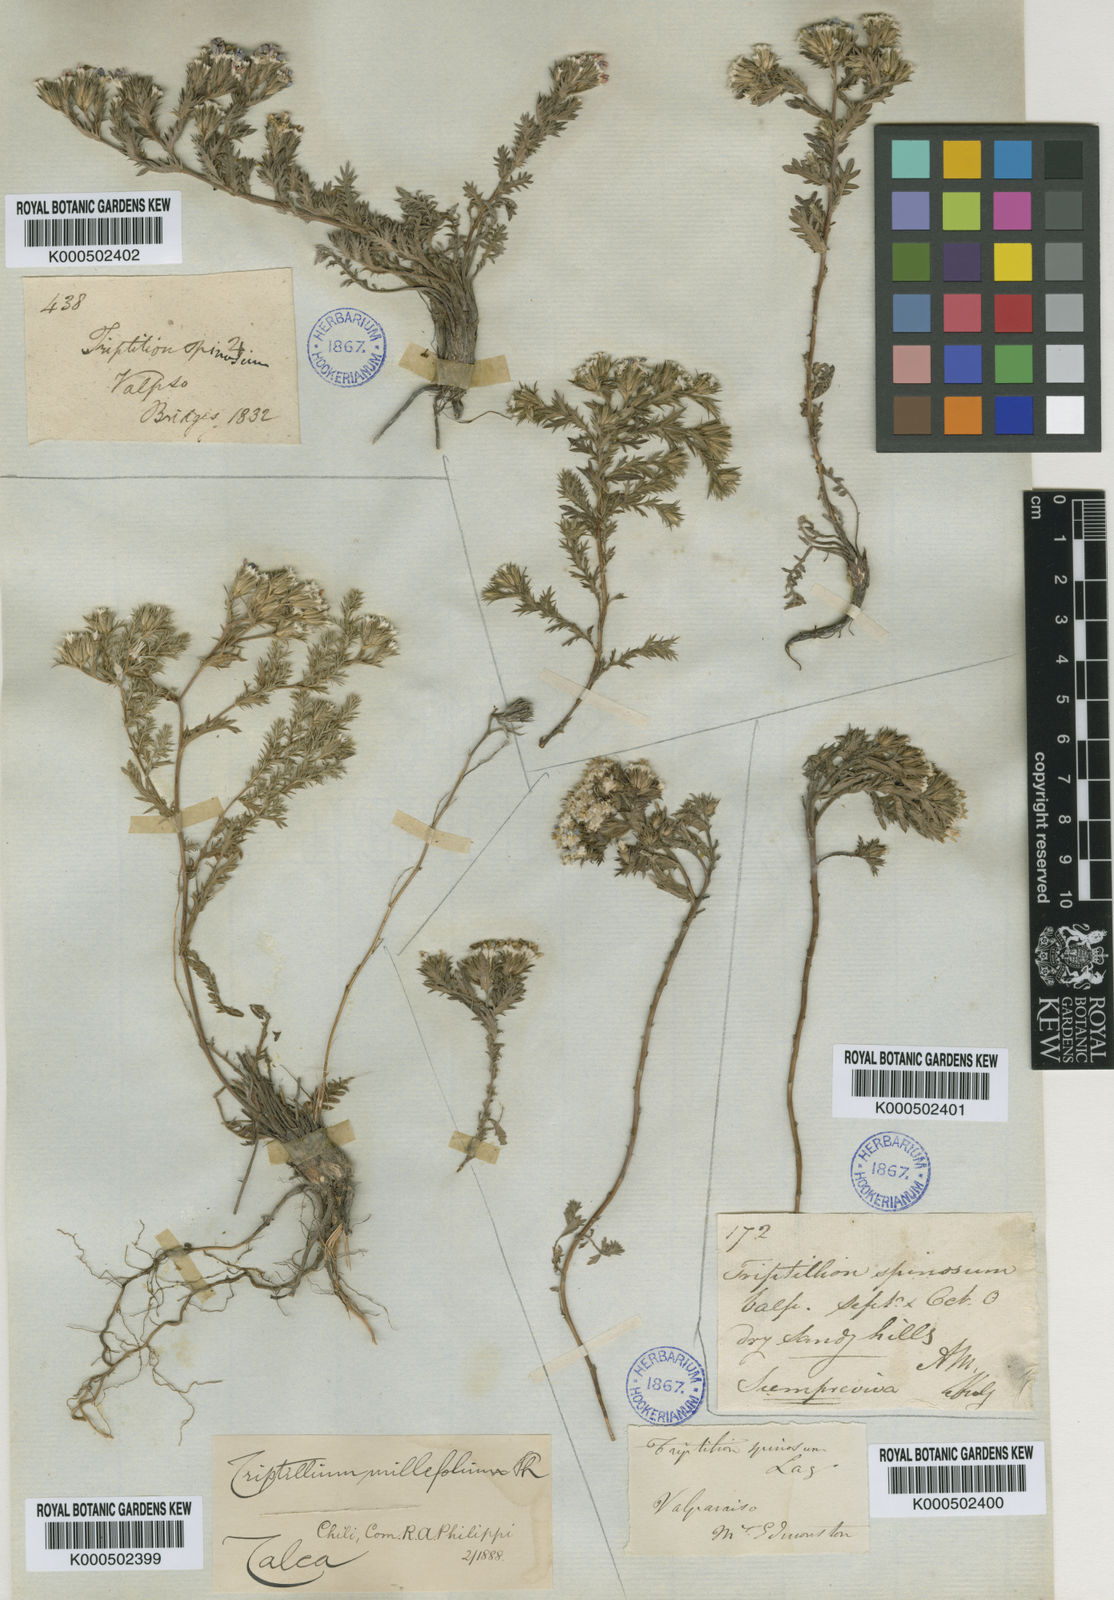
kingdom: Plantae
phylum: Tracheophyta
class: Magnoliopsida
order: Asterales
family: Asteraceae
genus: Triptilion
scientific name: Triptilion spinosum
